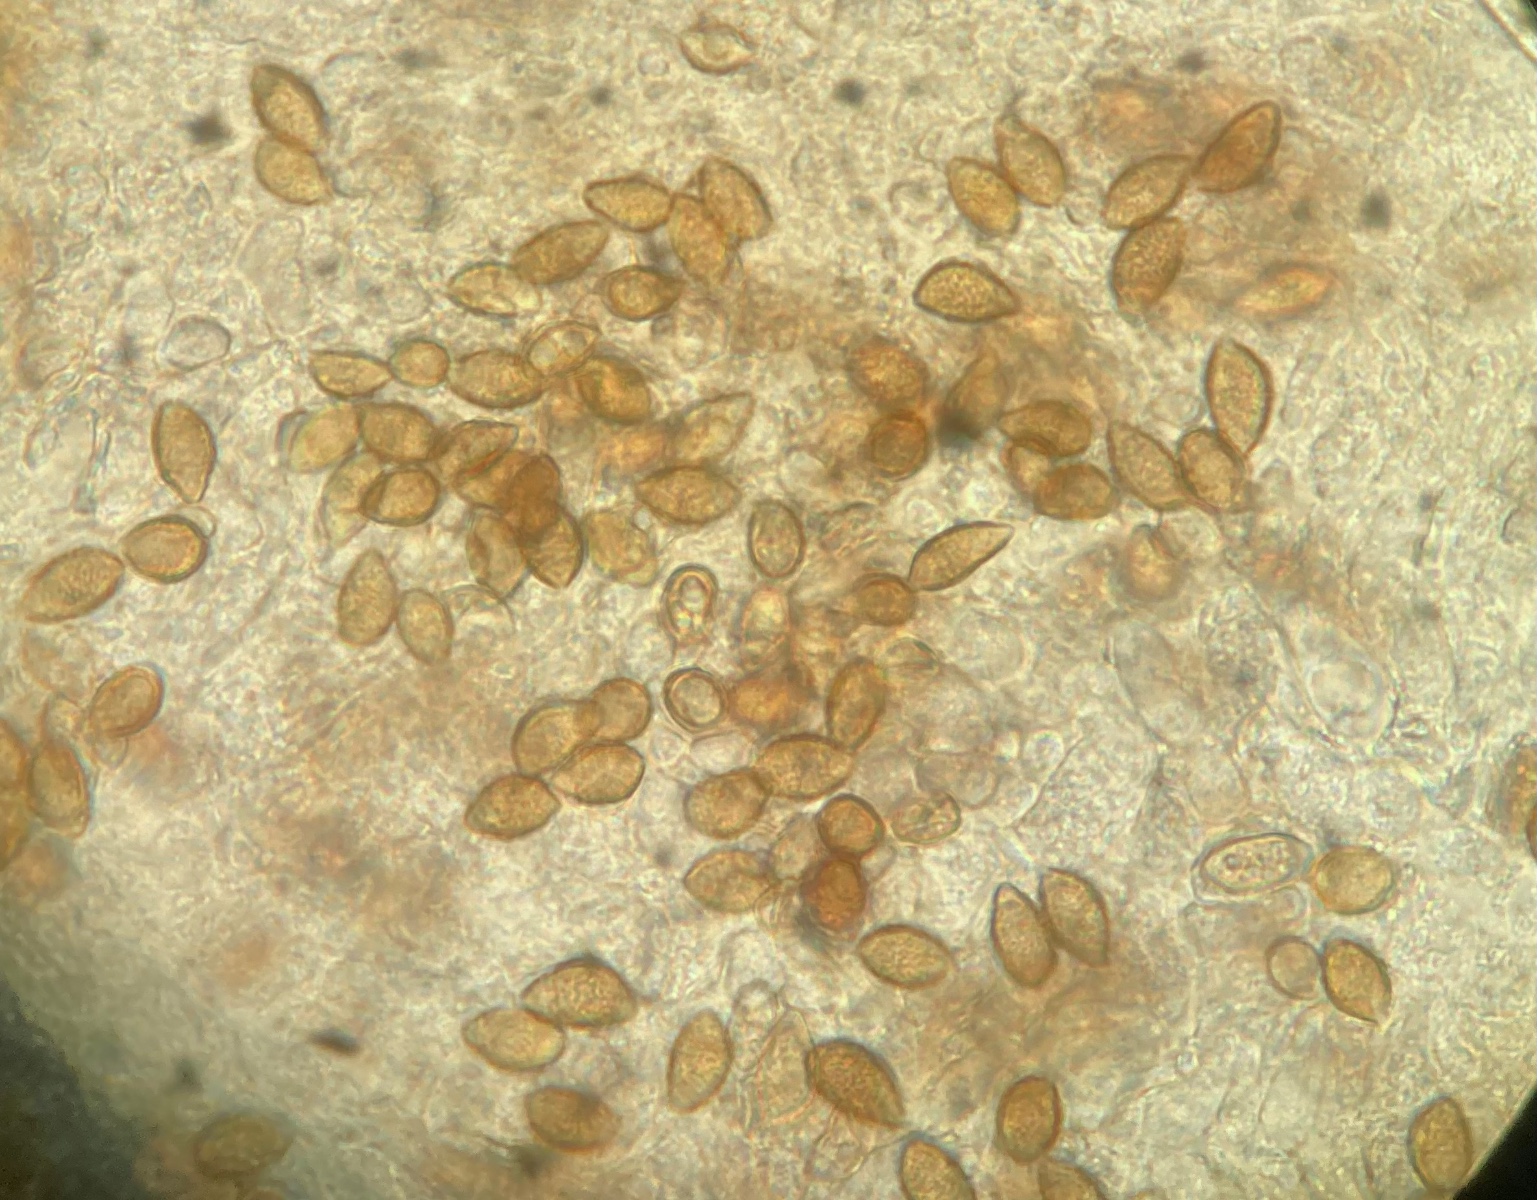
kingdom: Fungi
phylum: Basidiomycota
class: Agaricomycetes
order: Agaricales
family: Hymenogastraceae
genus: Hebeloma
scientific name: Hebeloma sacchariolens
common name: sødtduftende tåreblad
